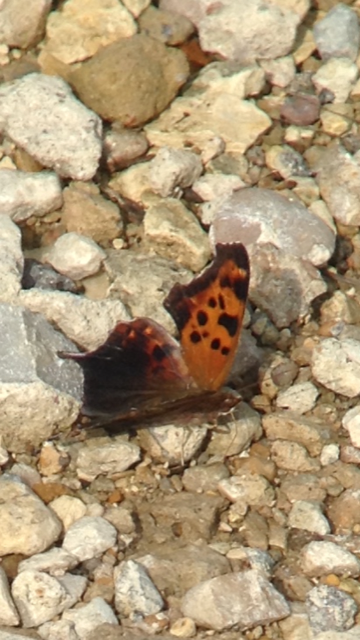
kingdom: Animalia
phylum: Arthropoda
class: Insecta
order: Lepidoptera
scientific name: Lepidoptera
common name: Butterflies
